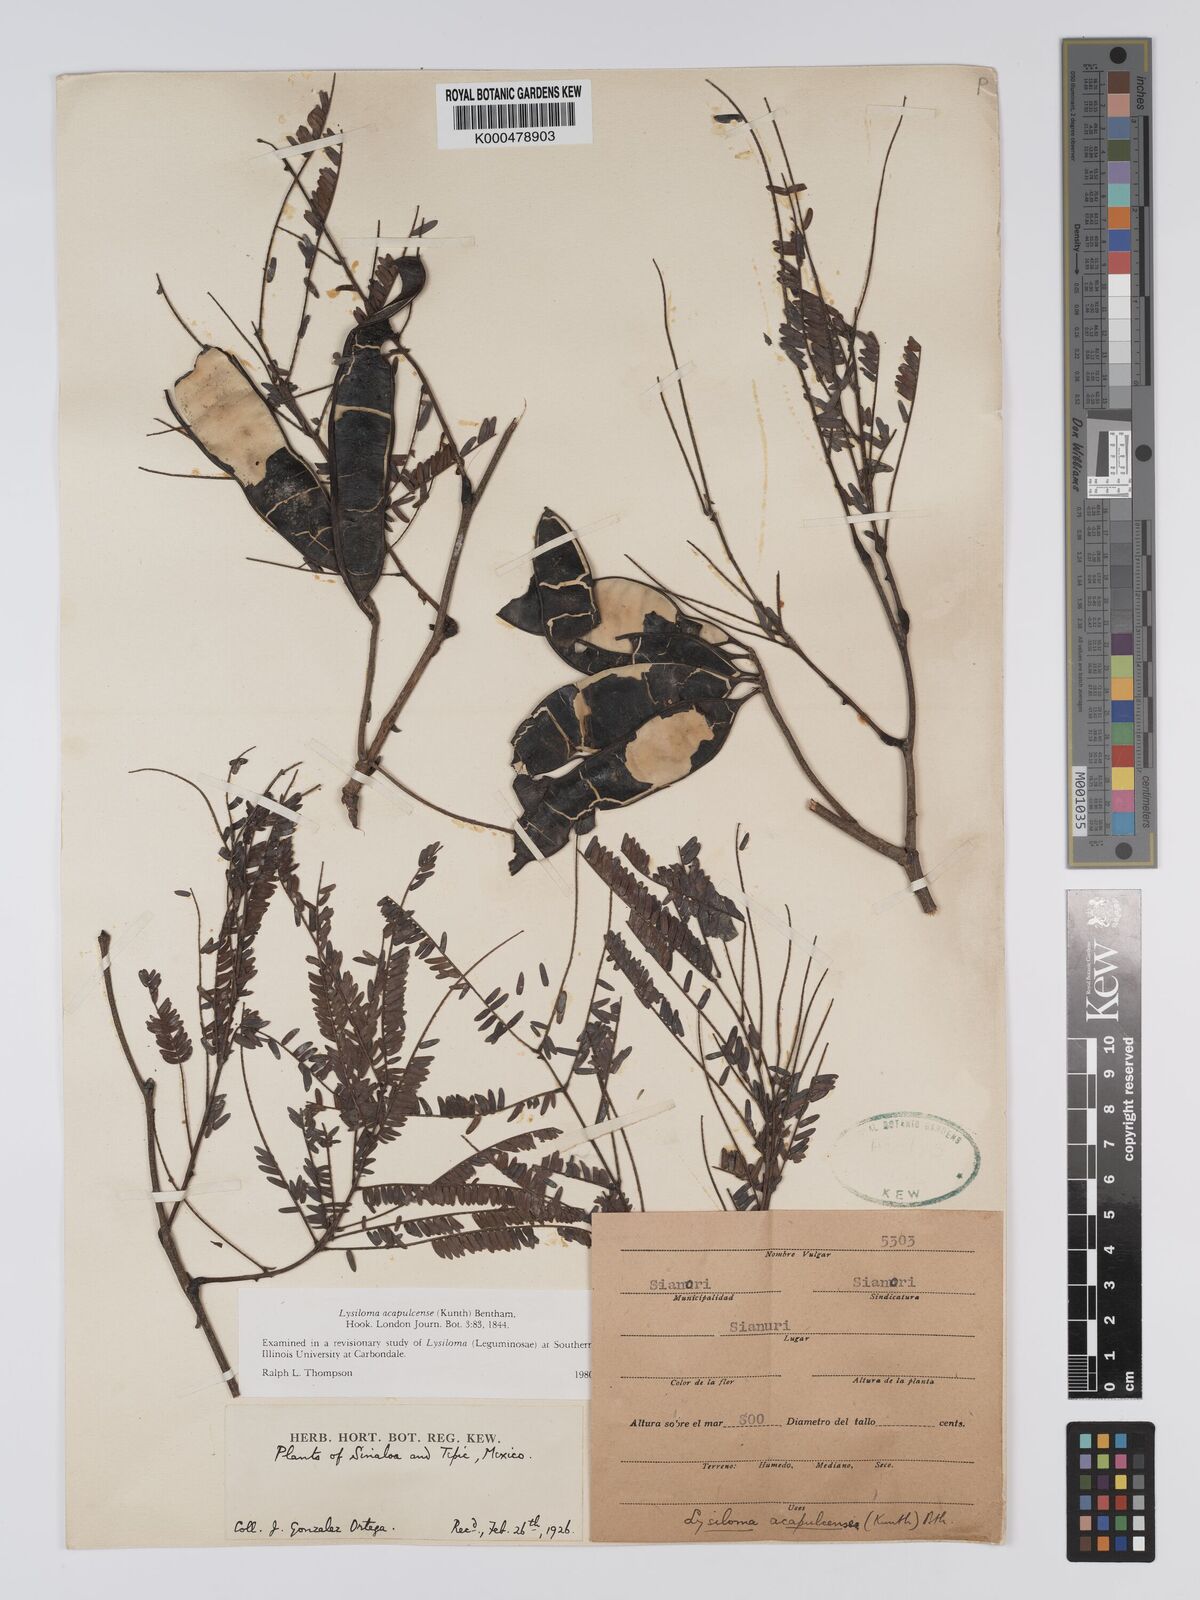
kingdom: Plantae
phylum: Tracheophyta
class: Magnoliopsida
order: Fabales
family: Fabaceae
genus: Lysiloma
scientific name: Lysiloma acapulcense
